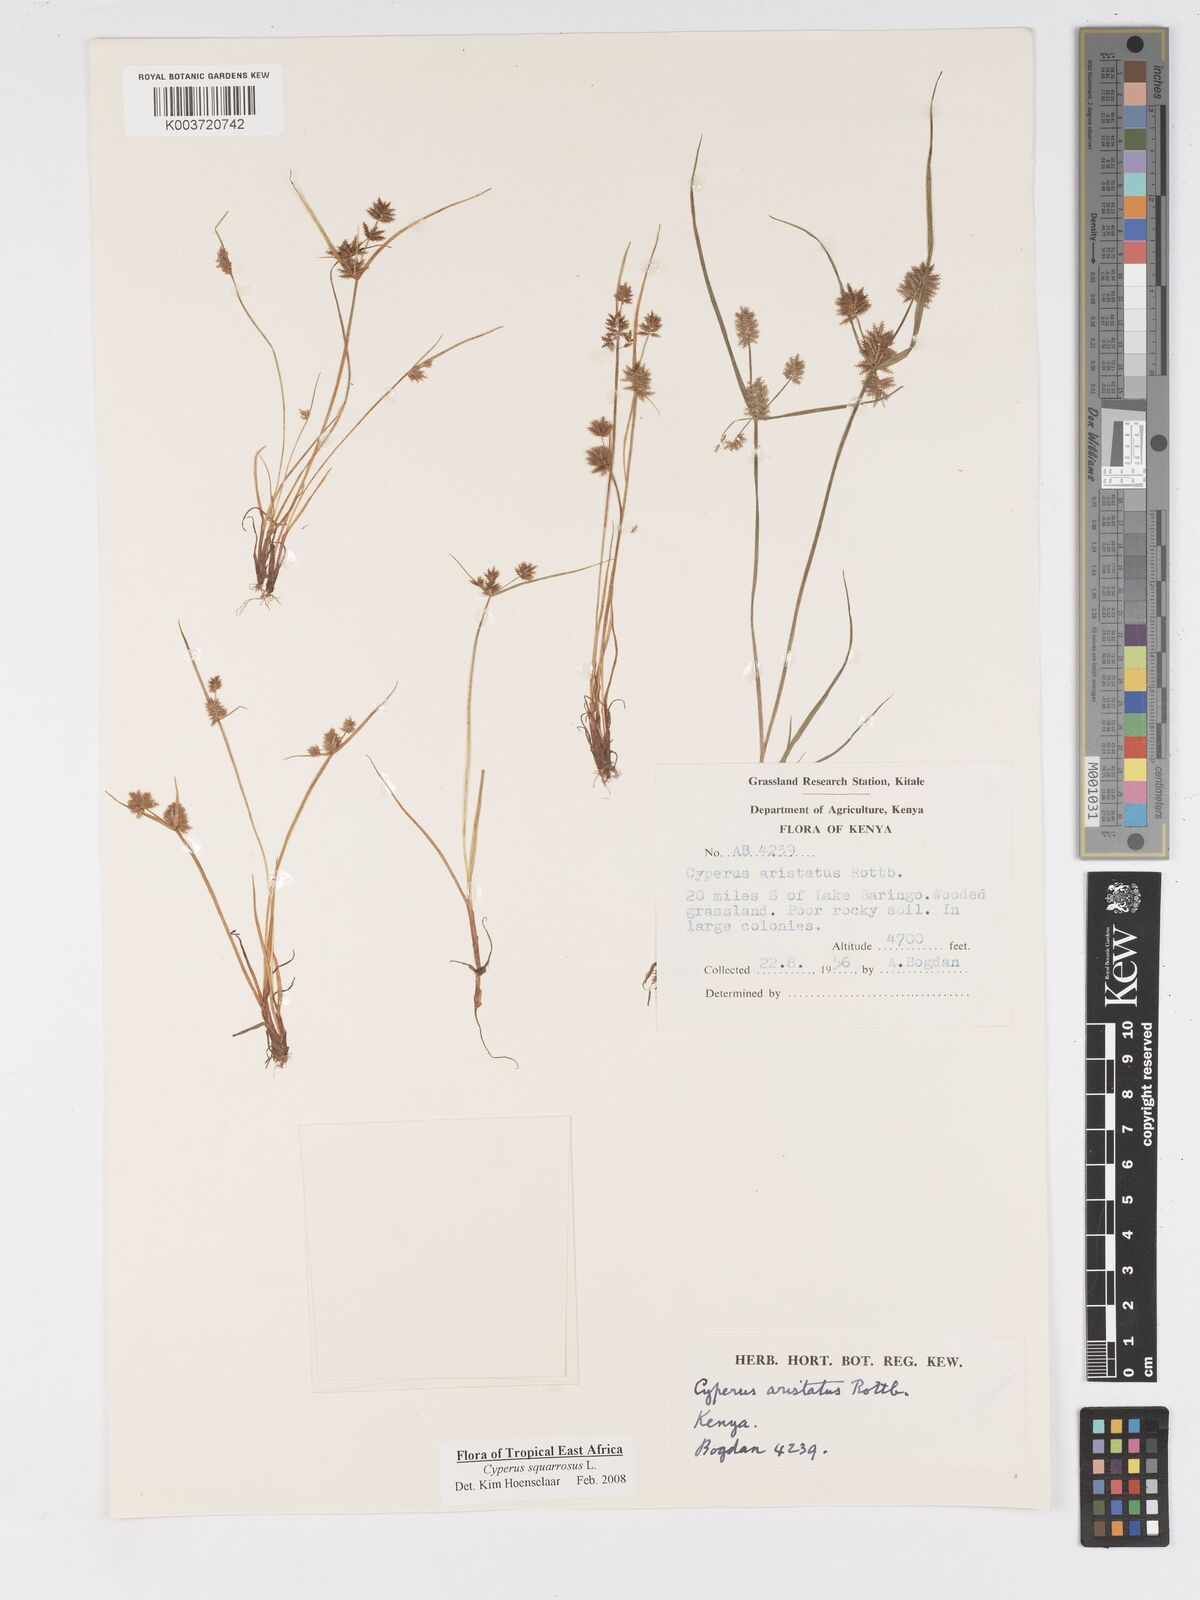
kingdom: Plantae
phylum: Tracheophyta
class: Liliopsida
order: Poales
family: Cyperaceae
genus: Cyperus
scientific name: Cyperus squarrosus
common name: Awned cyperus
